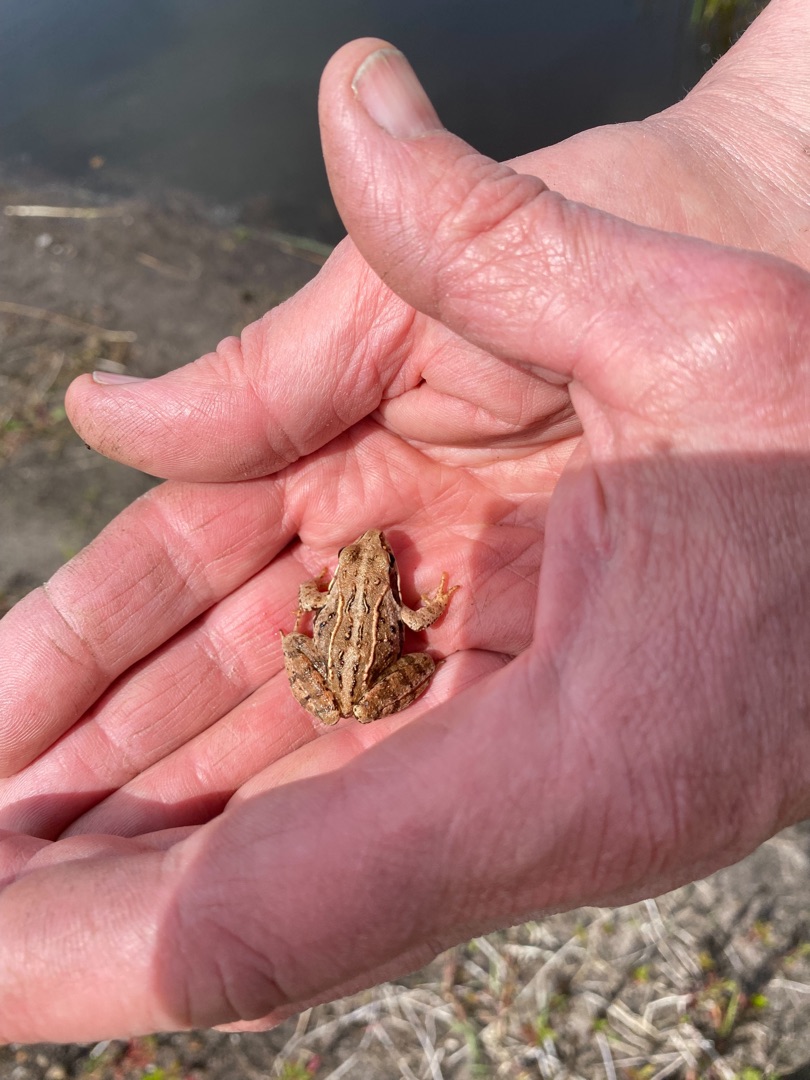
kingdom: Animalia
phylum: Chordata
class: Amphibia
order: Anura
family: Ranidae
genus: Rana
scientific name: Rana arvalis
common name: Spidssnudet frø
